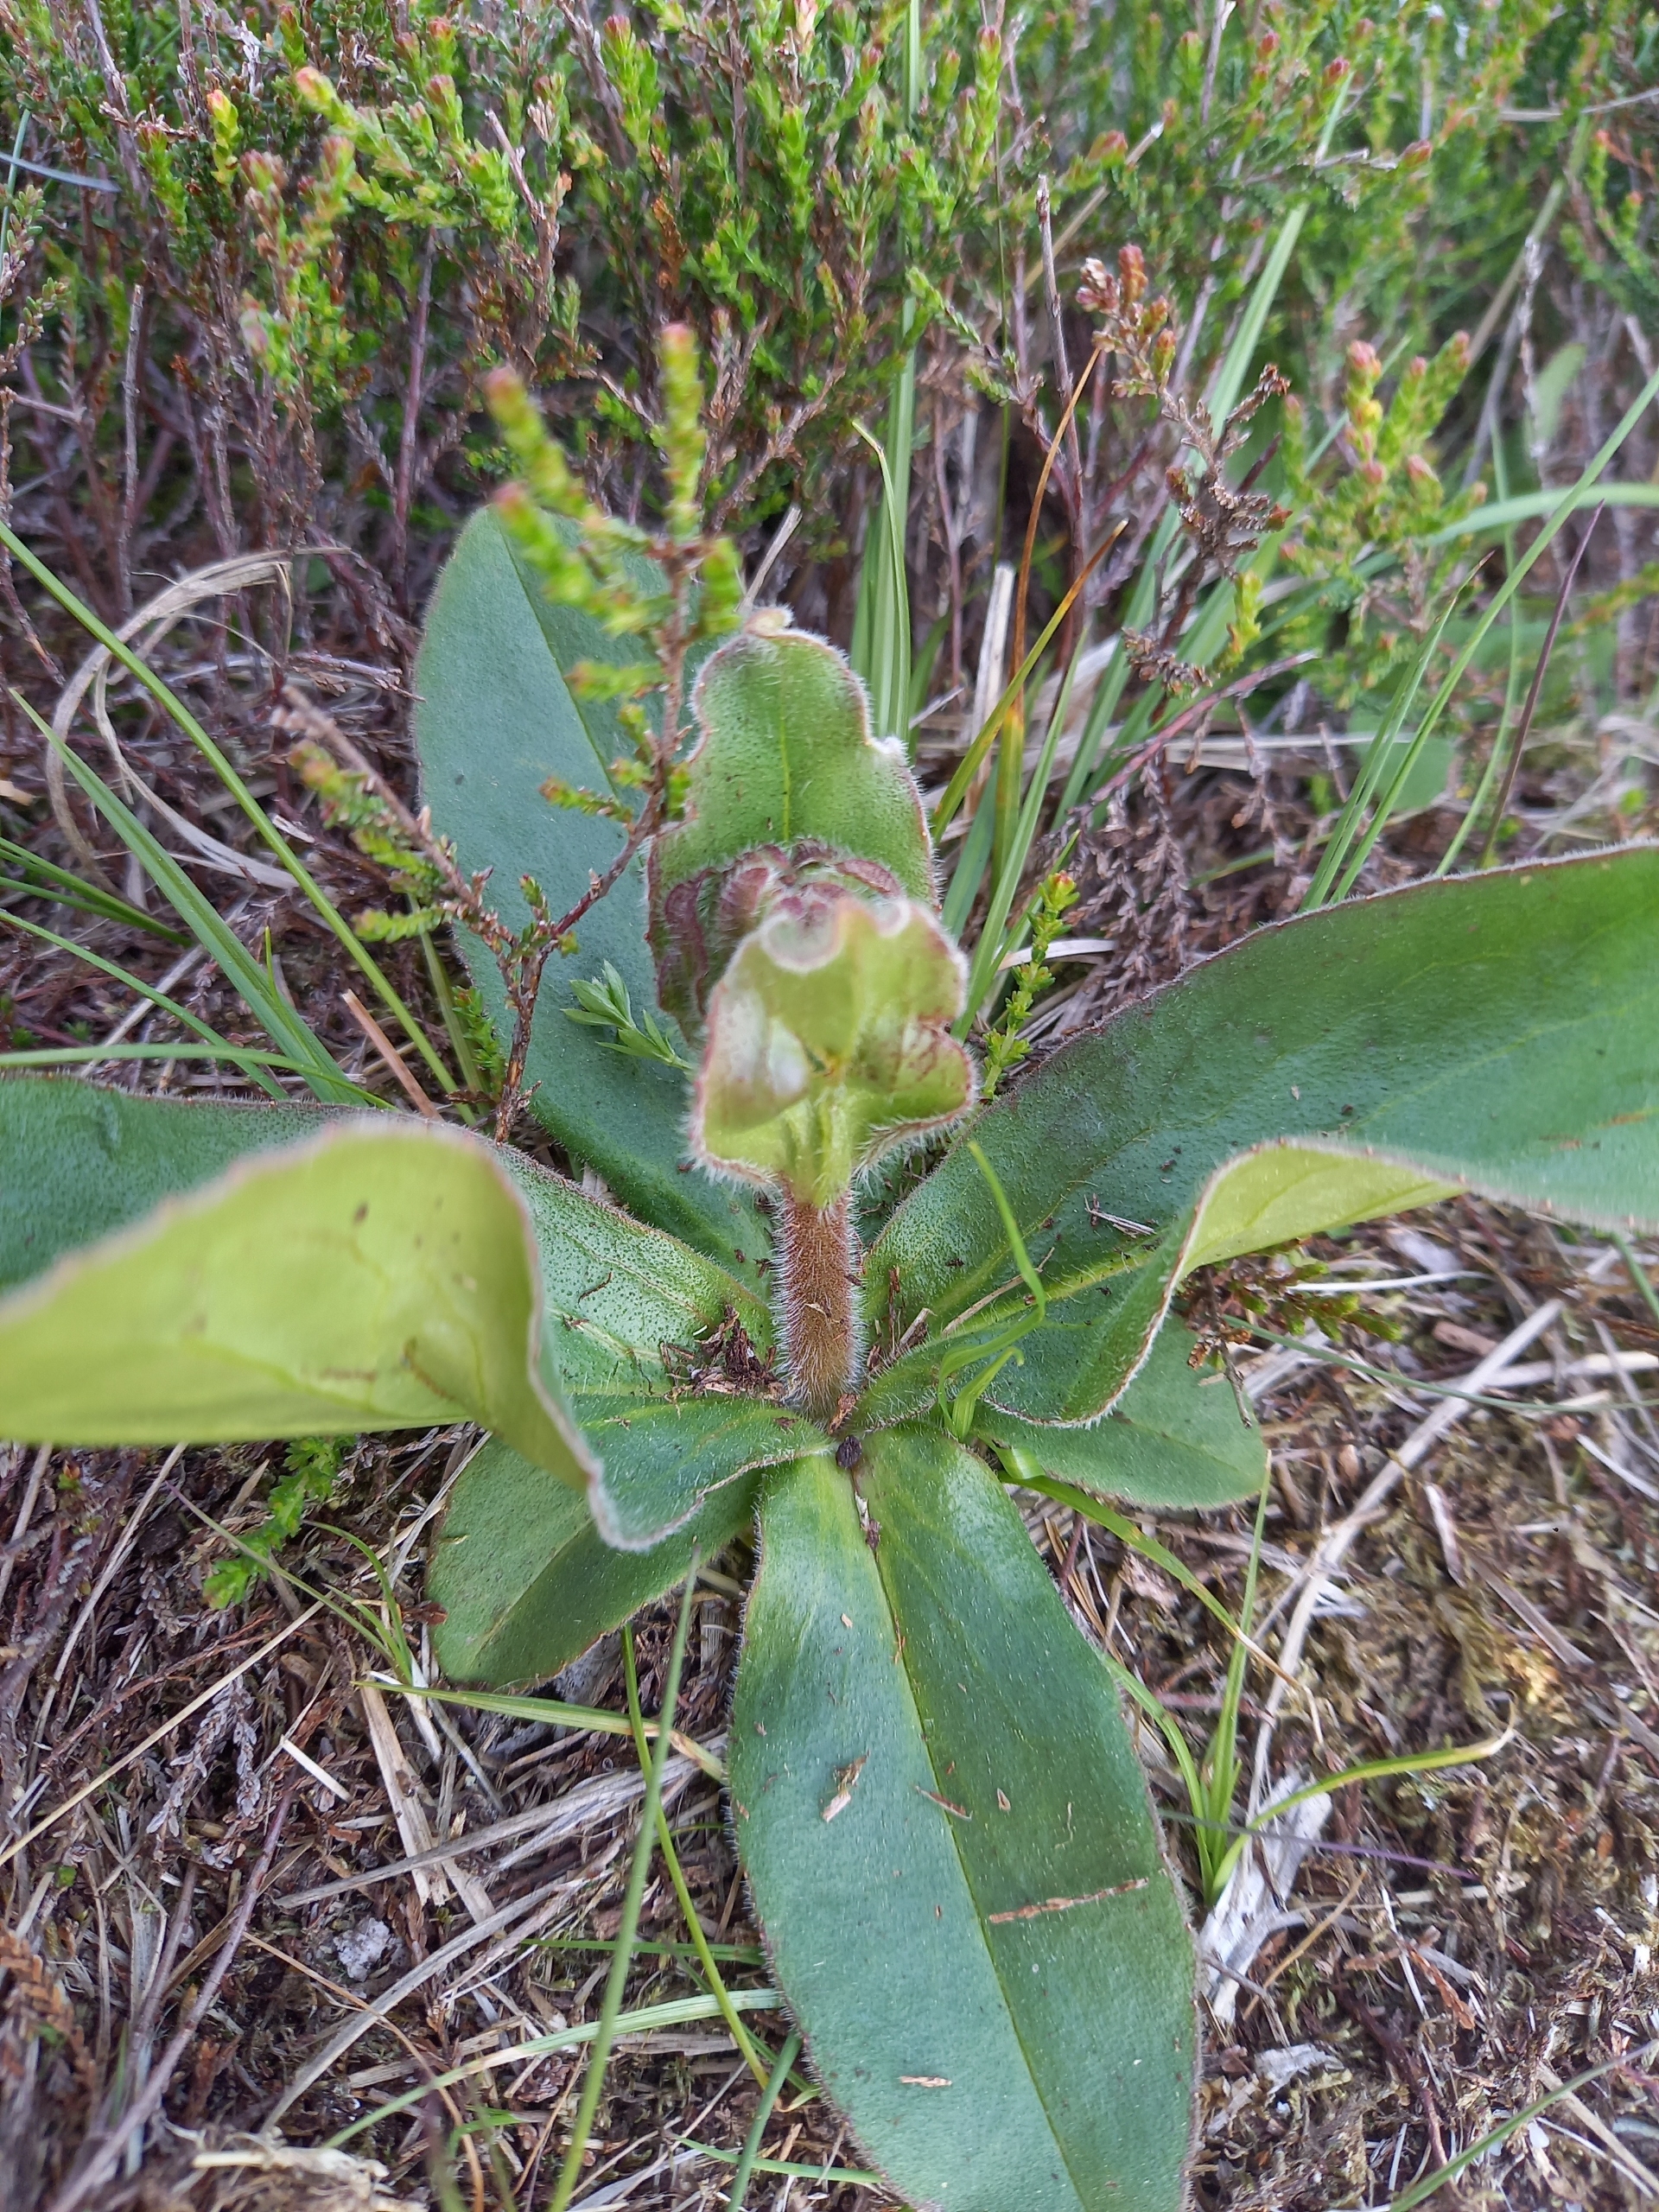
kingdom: Plantae
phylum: Tracheophyta
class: Magnoliopsida
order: Asterales
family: Asteraceae
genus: Arnica
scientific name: Arnica montana
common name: Guldblomme
